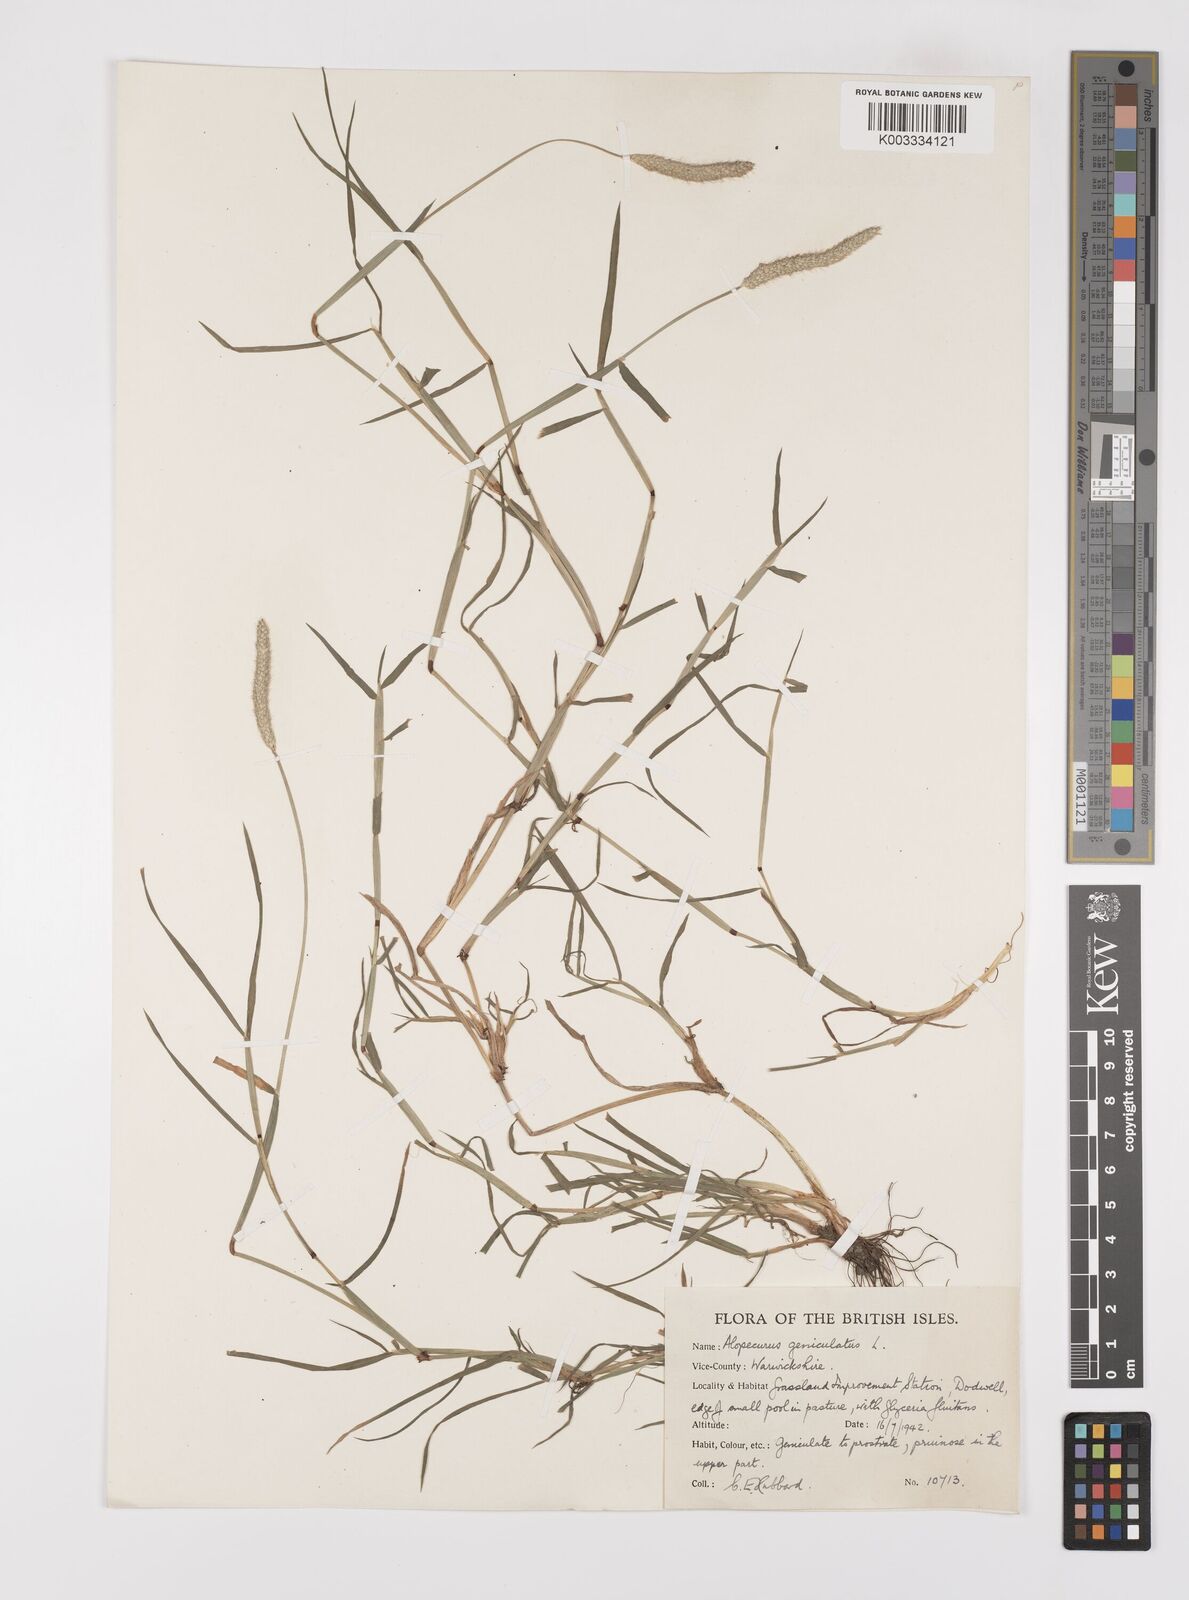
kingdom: Plantae
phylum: Tracheophyta
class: Liliopsida
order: Poales
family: Poaceae
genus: Alopecurus
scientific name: Alopecurus geniculatus
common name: Water foxtail
